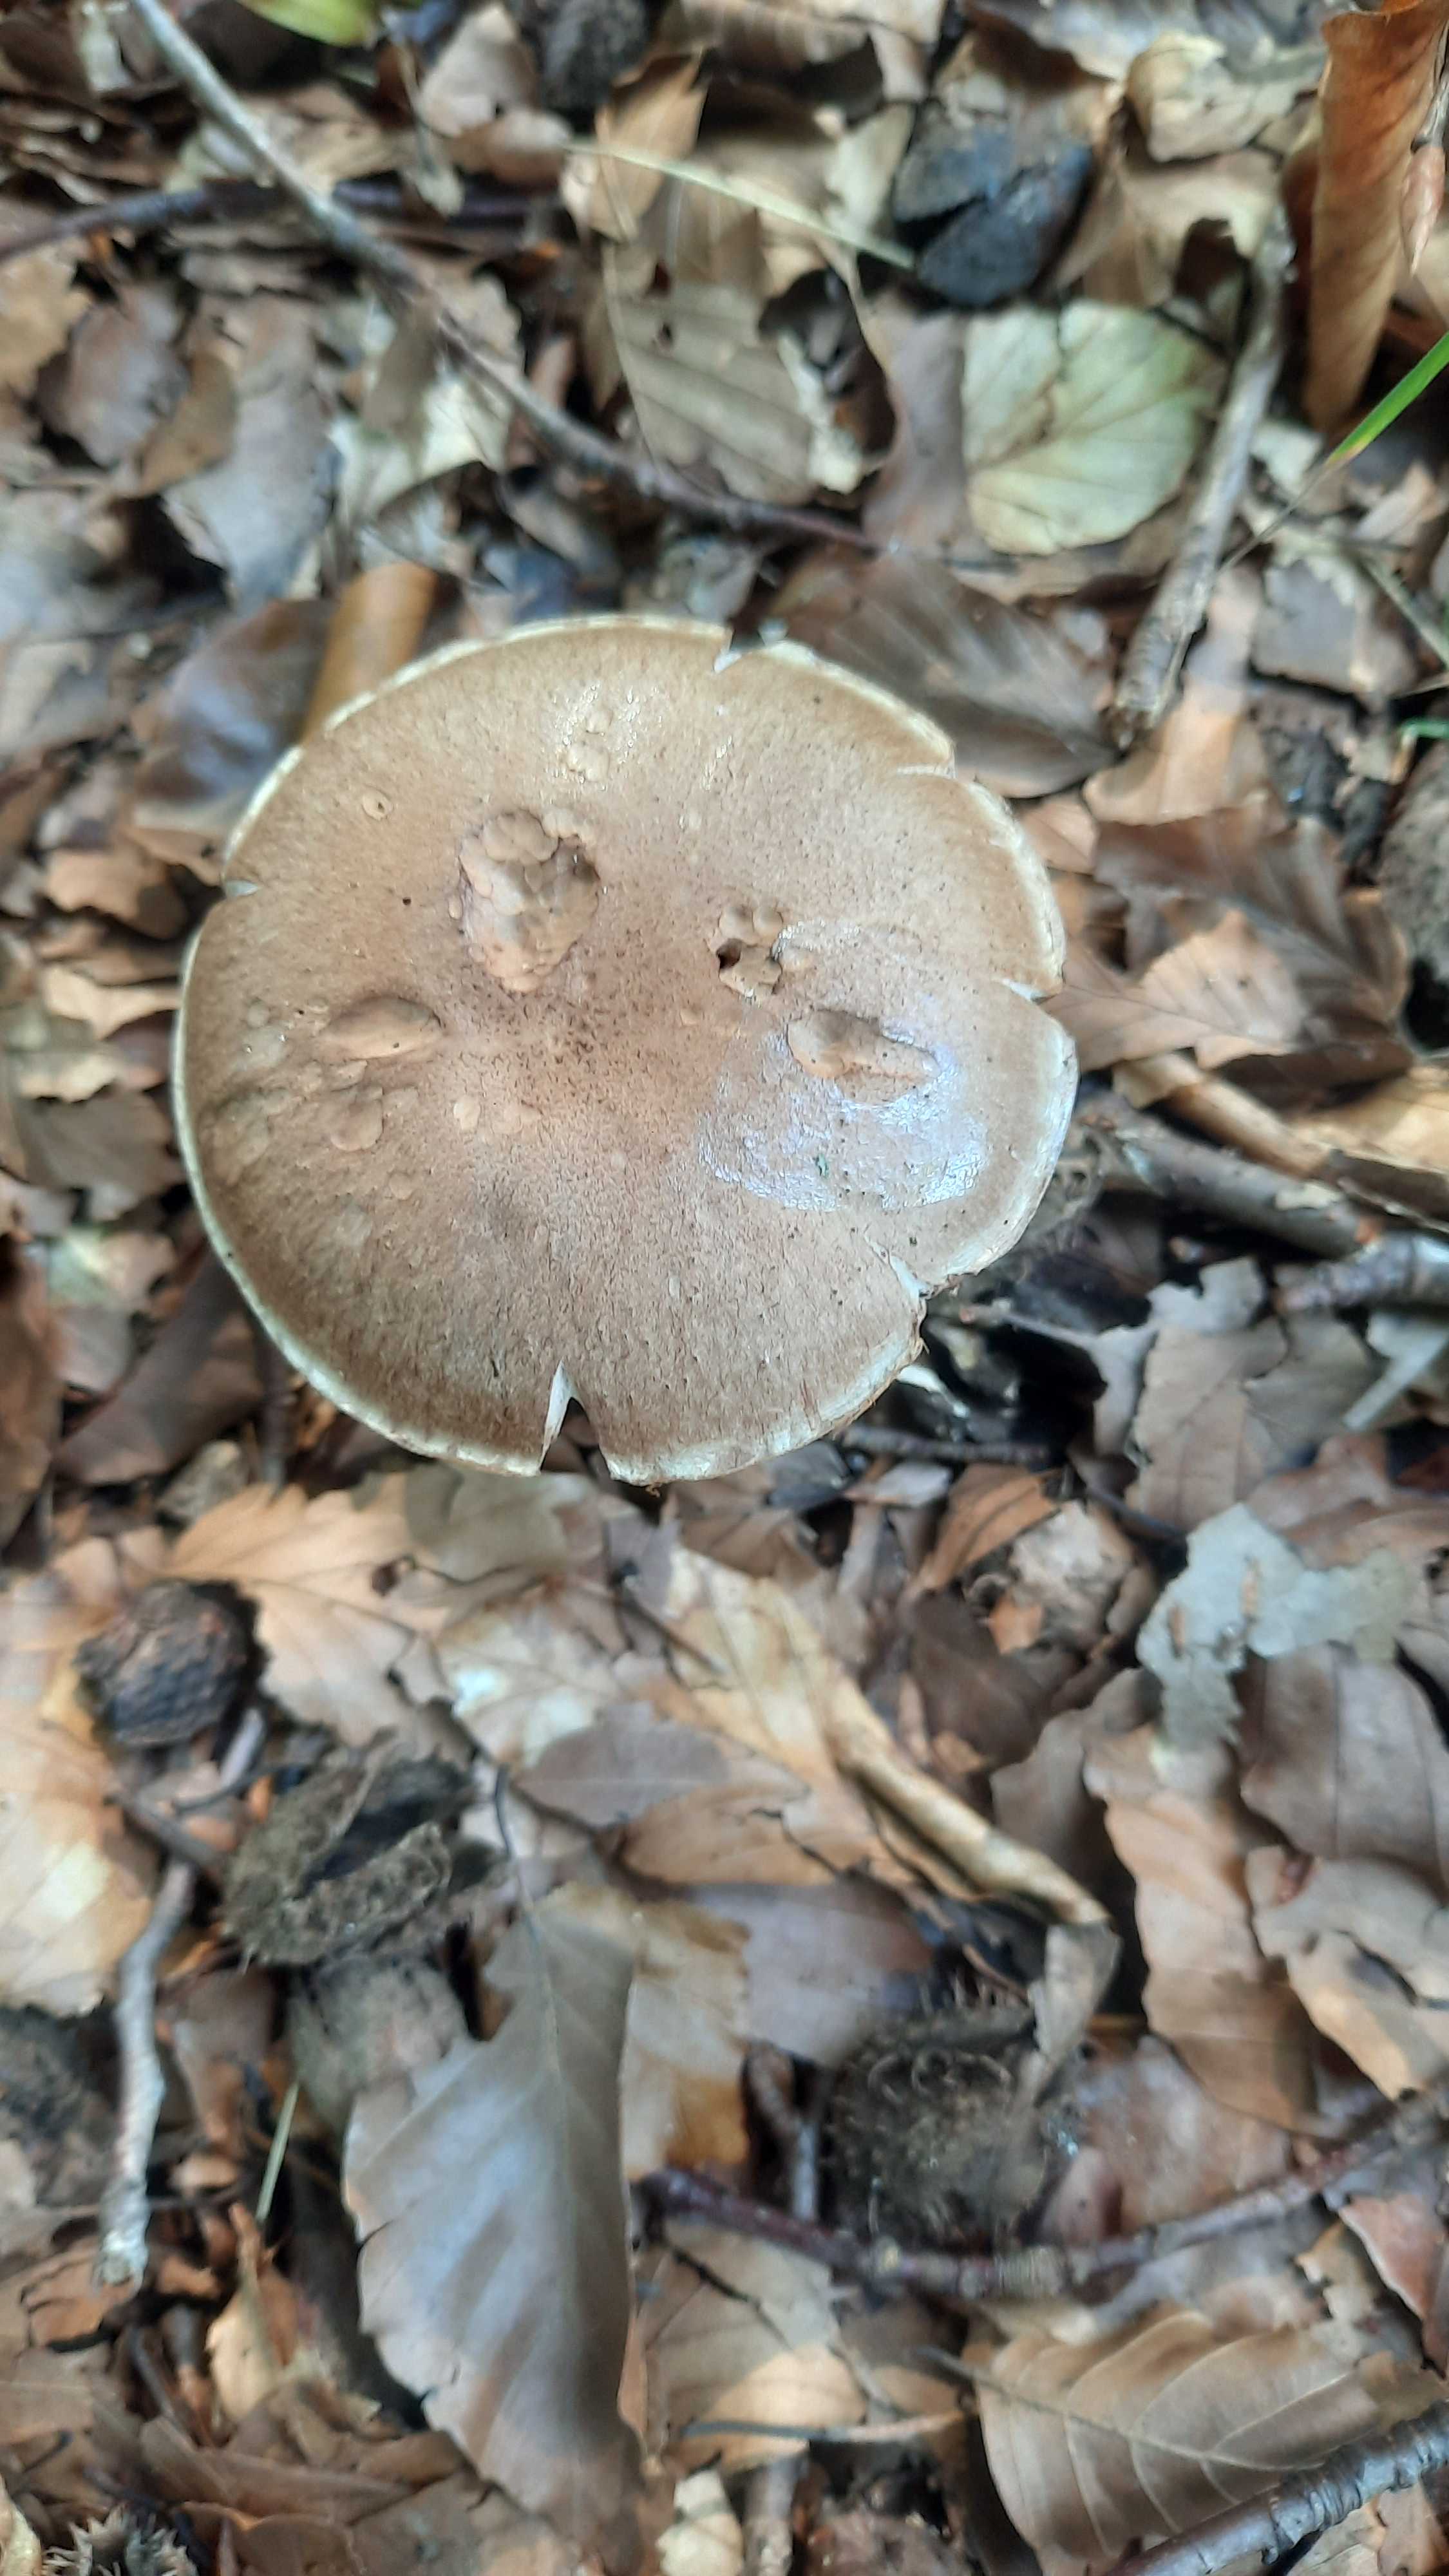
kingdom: Fungi
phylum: Basidiomycota
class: Agaricomycetes
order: Agaricales
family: Cortinariaceae
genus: Cortinarius
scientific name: Cortinarius torvus
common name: champignonagtig slørhat
